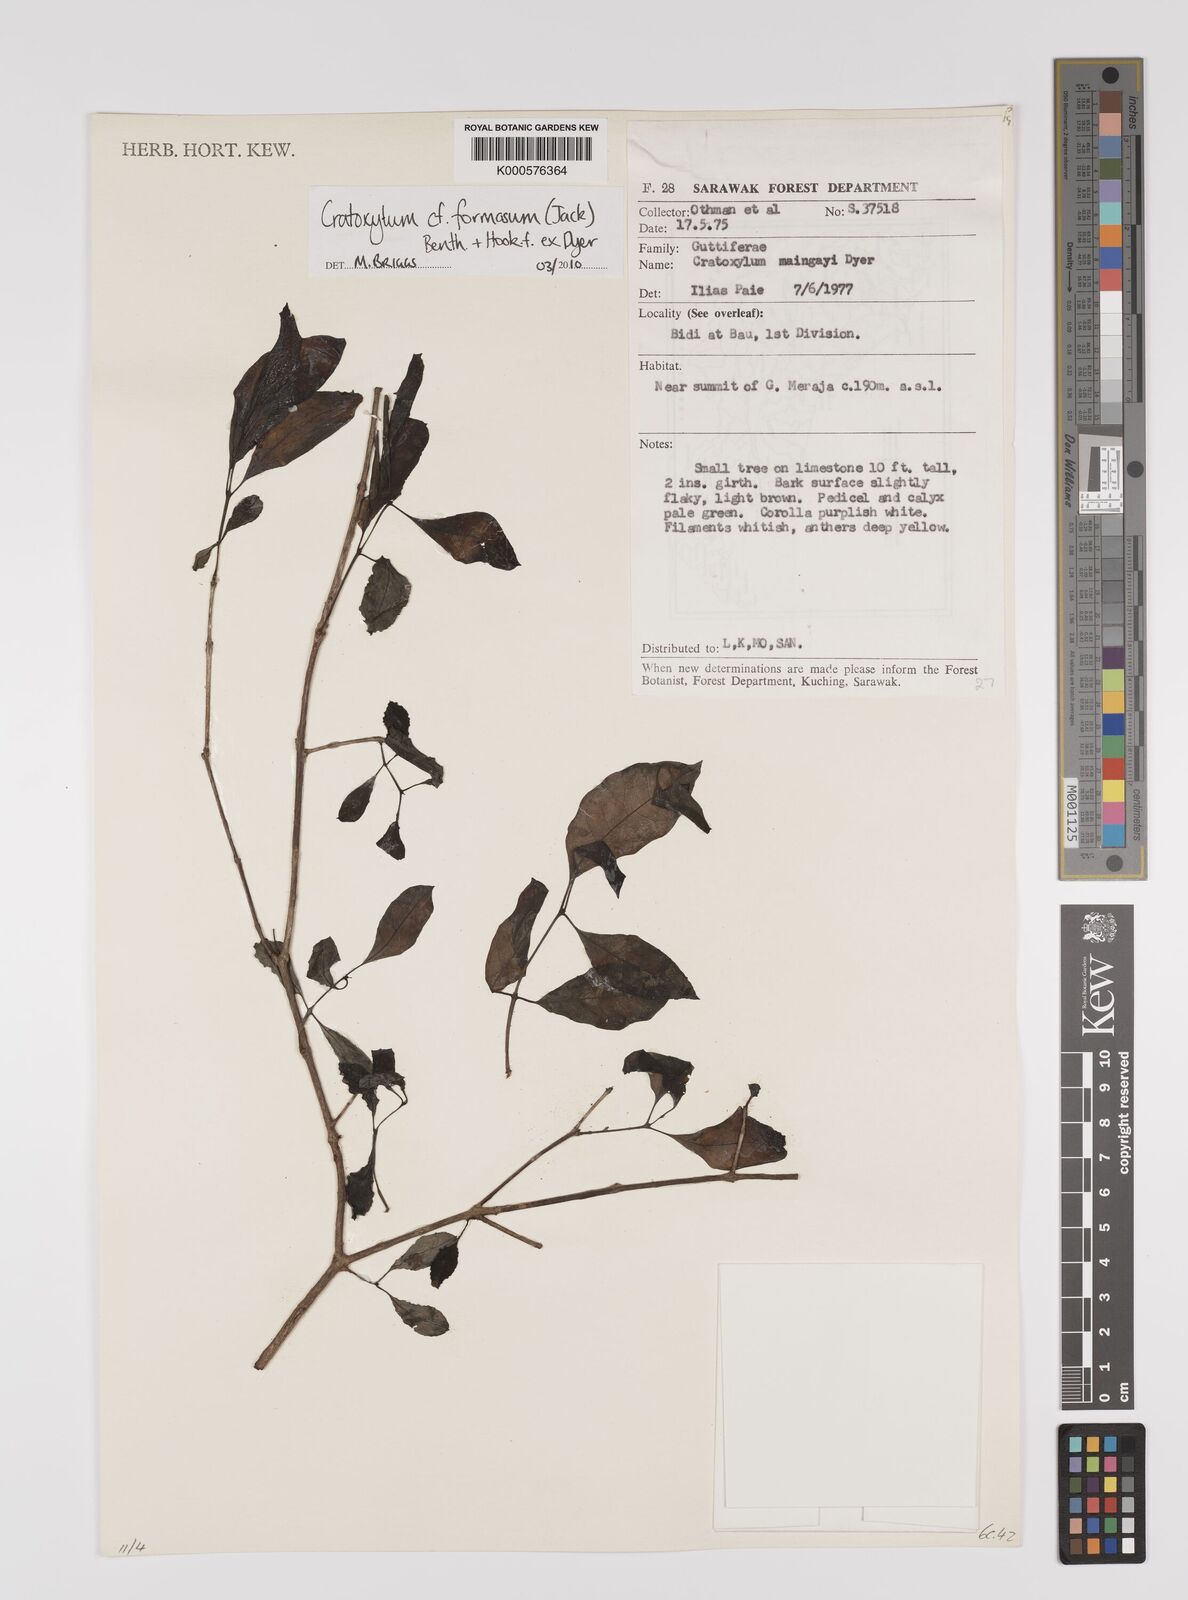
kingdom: Plantae
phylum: Tracheophyta
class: Magnoliopsida
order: Malpighiales
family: Hypericaceae
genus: Cratoxylum
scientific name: Cratoxylum formosum
